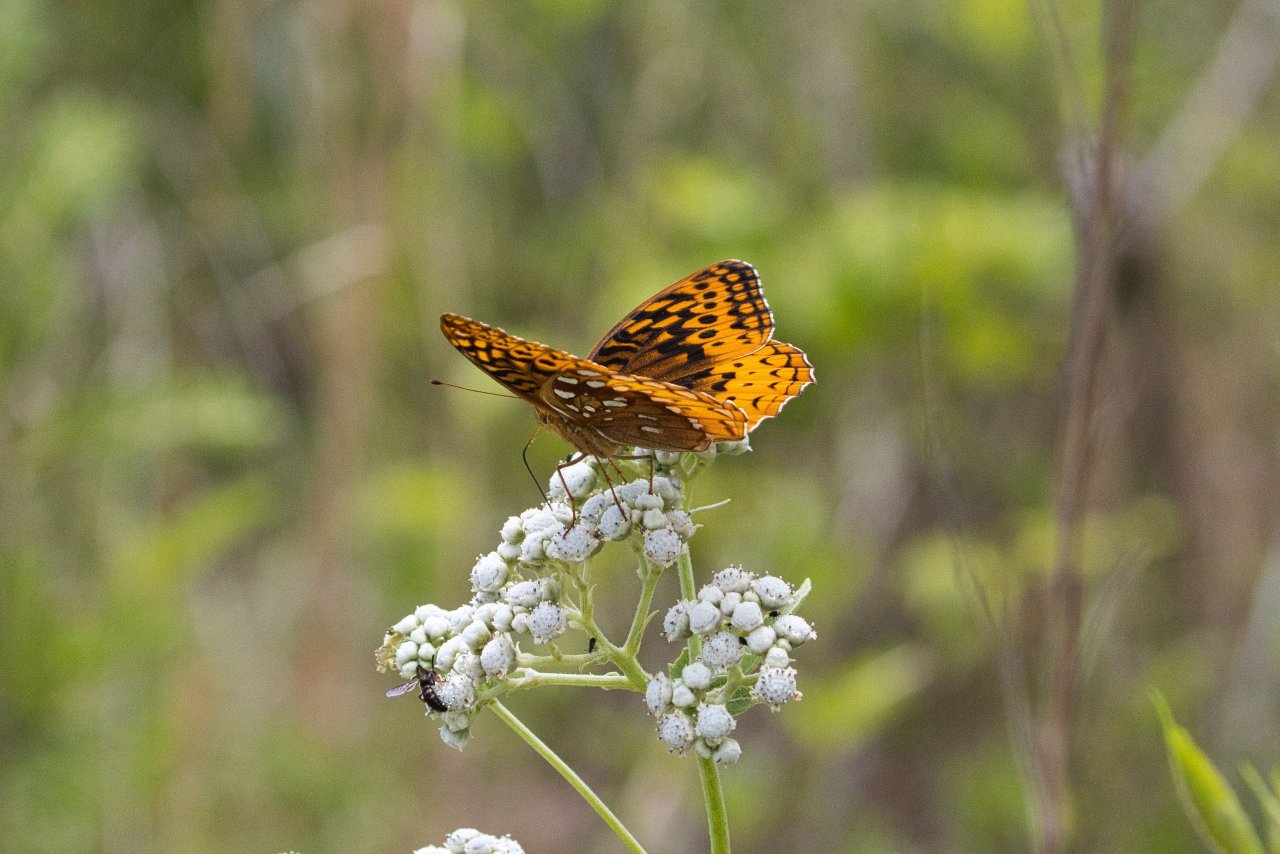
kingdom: Animalia
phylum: Arthropoda
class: Insecta
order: Lepidoptera
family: Nymphalidae
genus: Speyeria
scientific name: Speyeria cybele
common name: Great Spangled Fritillary
